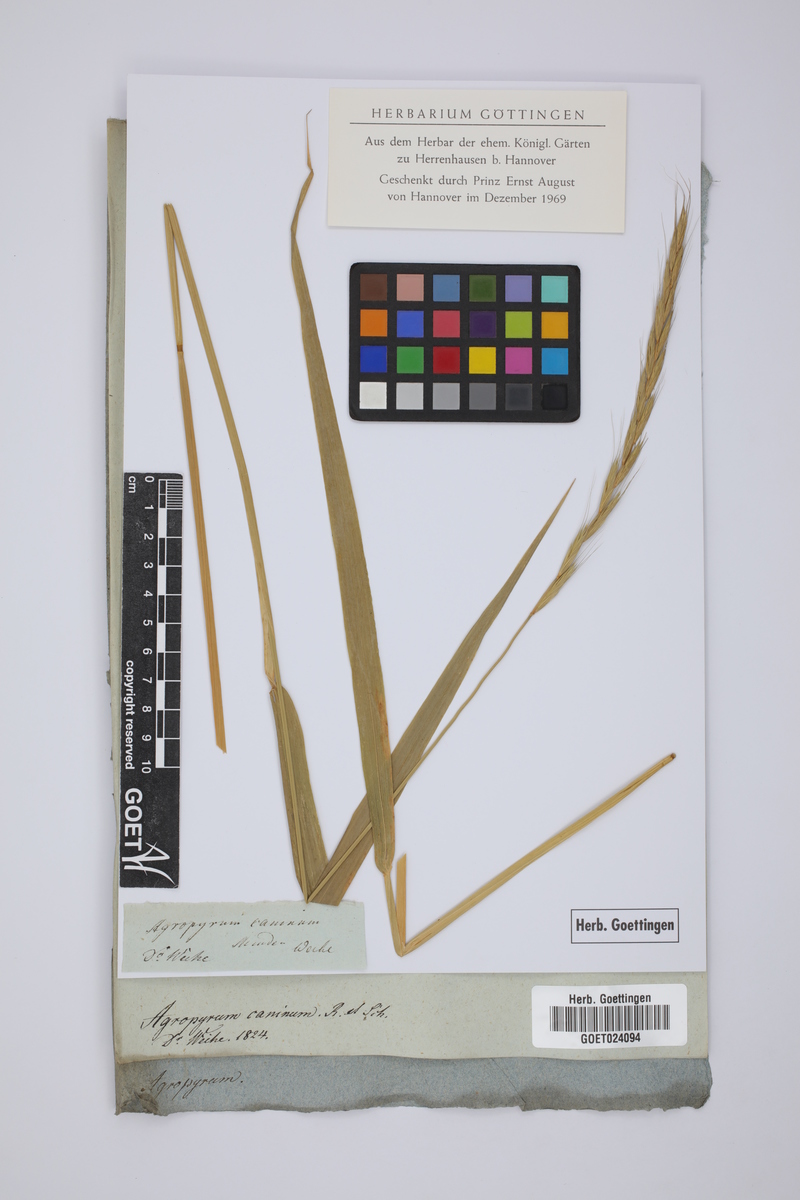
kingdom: Plantae
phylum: Tracheophyta
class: Liliopsida
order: Poales
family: Poaceae
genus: Elymus
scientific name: Elymus caninus
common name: Bearded couch
